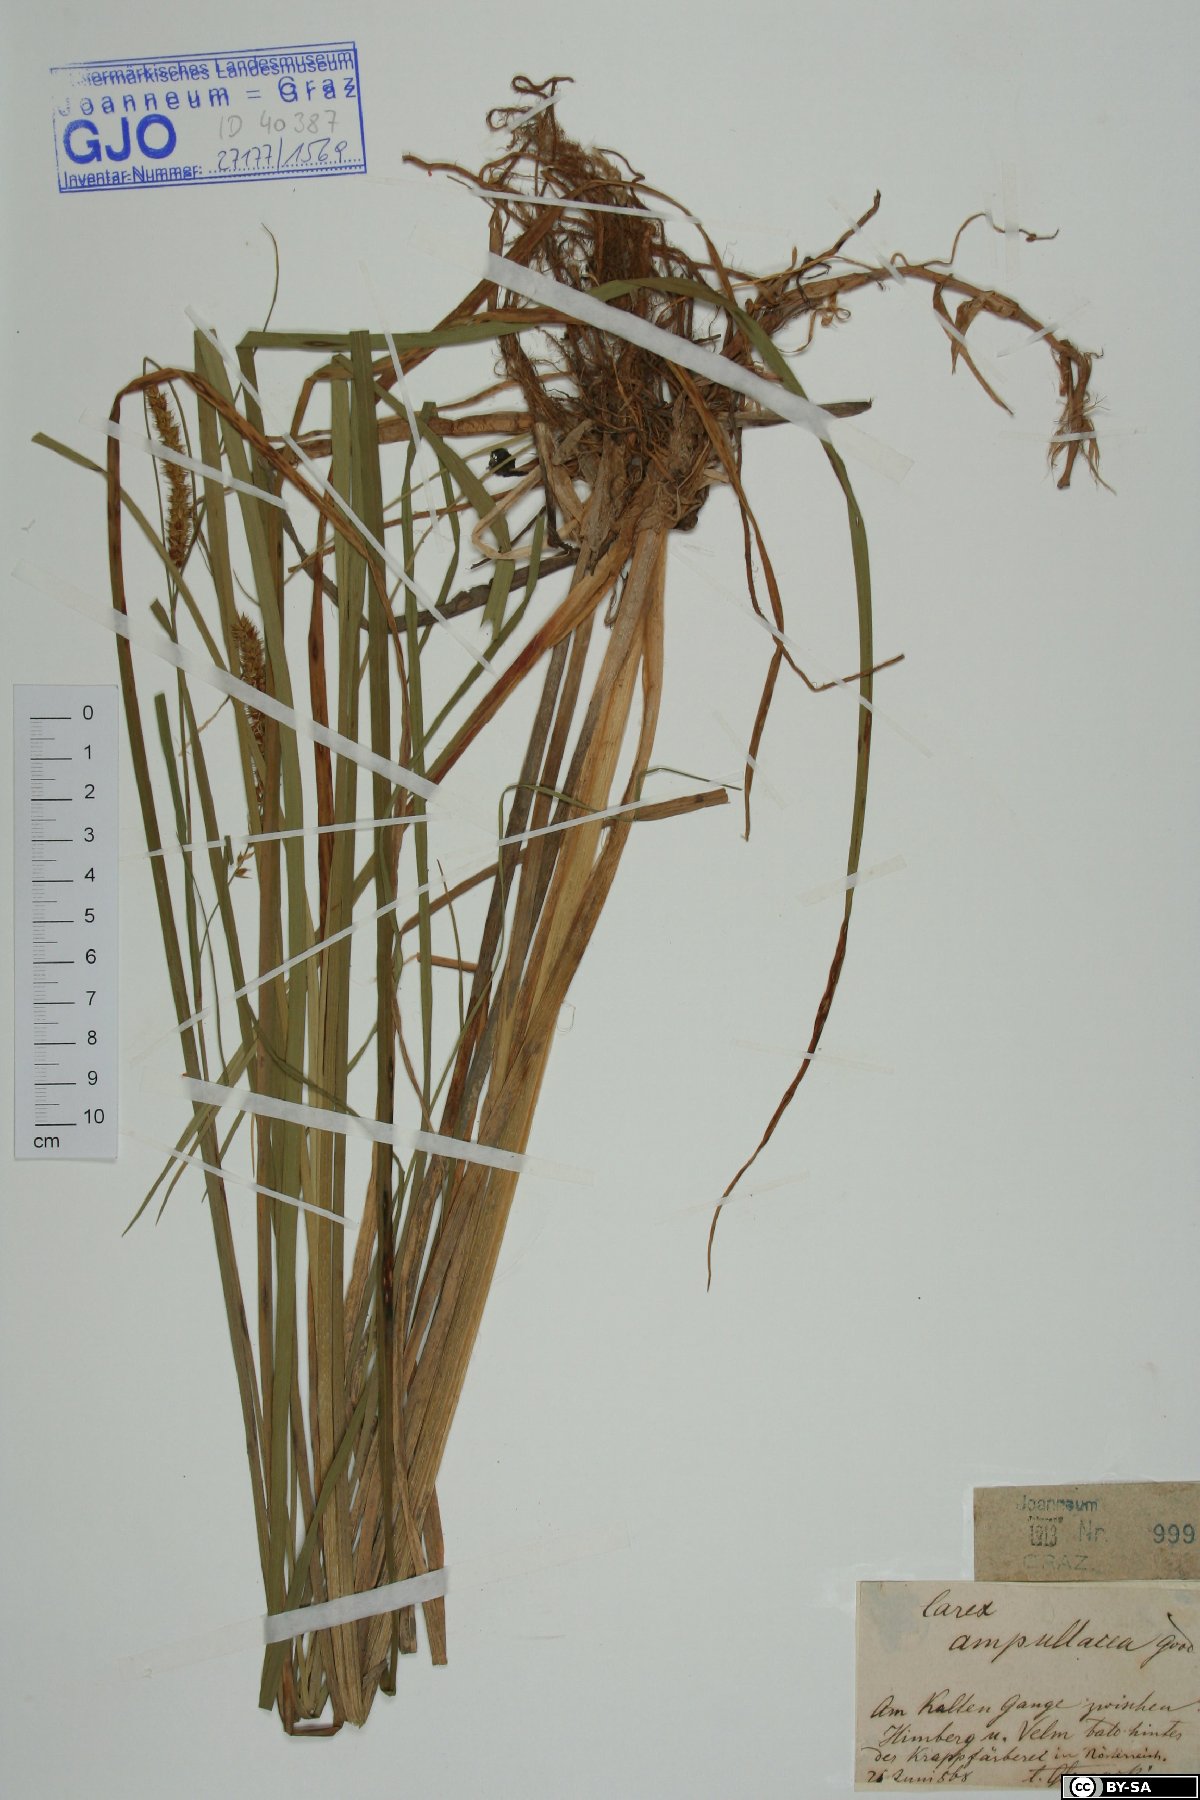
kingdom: Plantae
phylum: Tracheophyta
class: Liliopsida
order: Poales
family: Cyperaceae
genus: Carex
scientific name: Carex rostrata
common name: Bottle sedge
